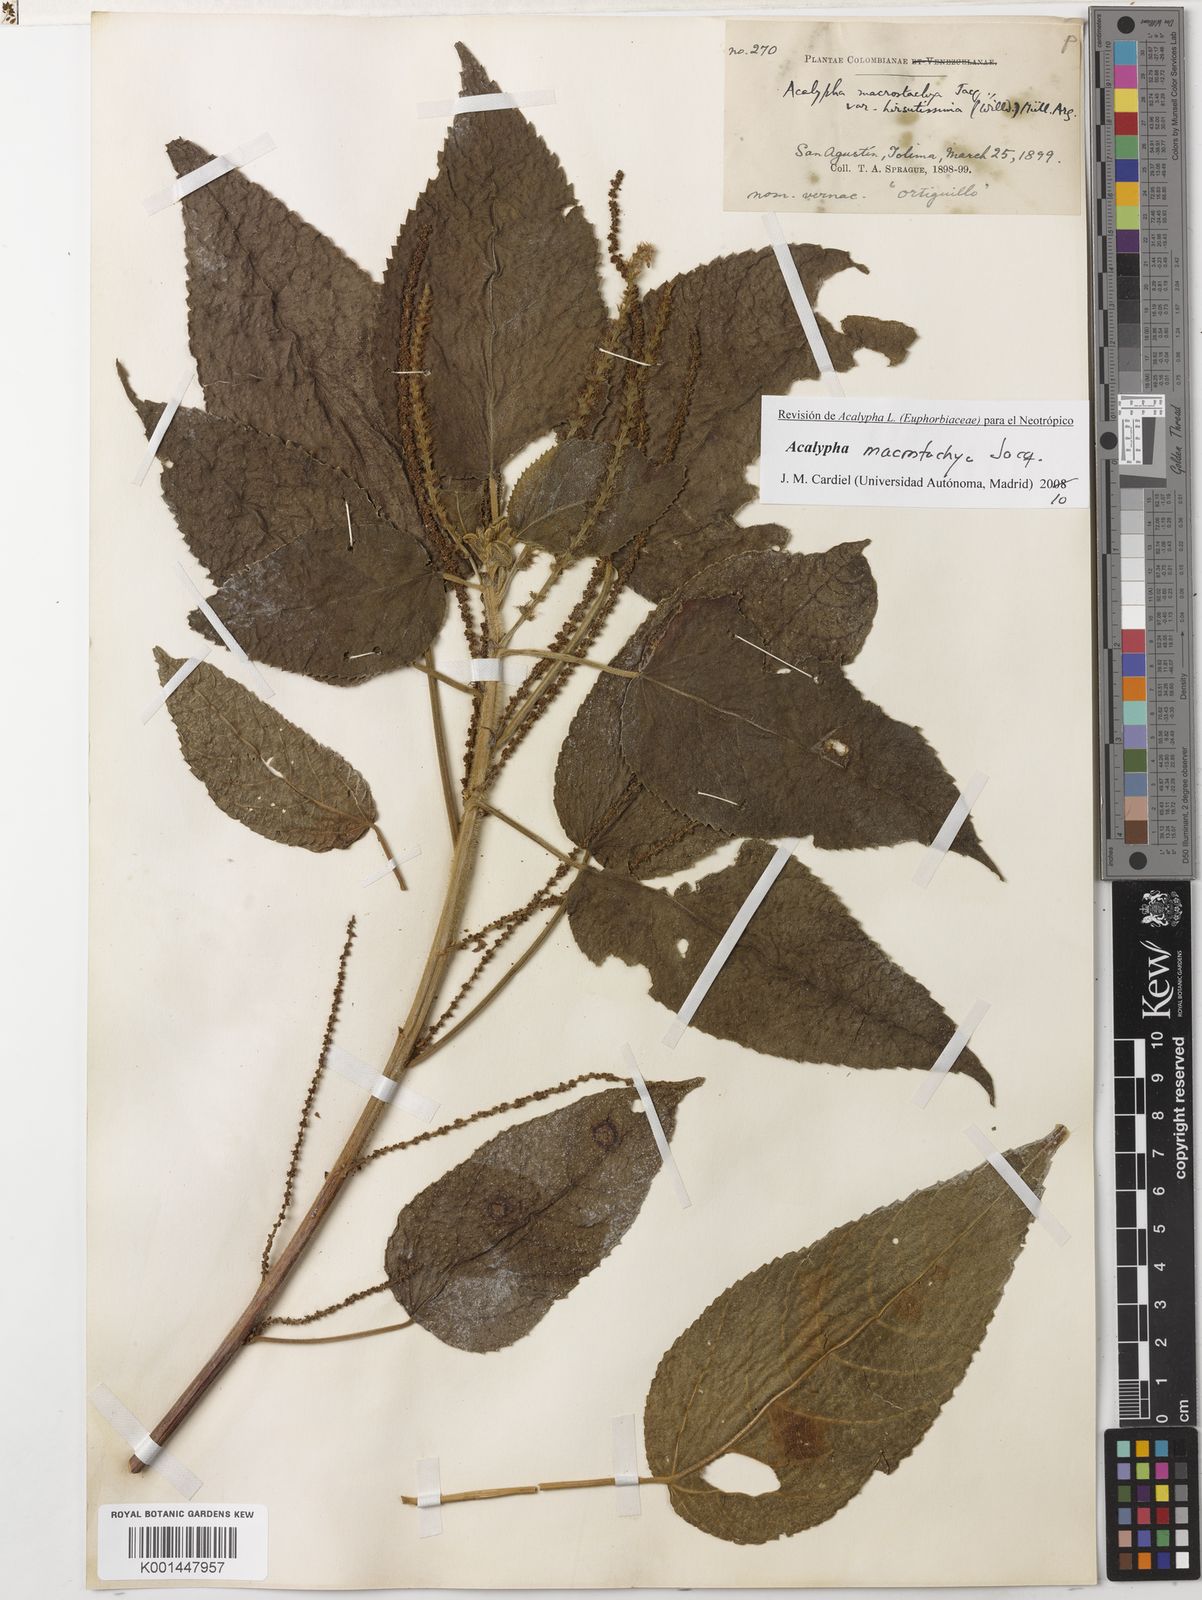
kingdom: Plantae
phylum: Tracheophyta
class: Magnoliopsida
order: Malpighiales
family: Euphorbiaceae
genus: Acalypha
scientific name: Acalypha macrostachya
